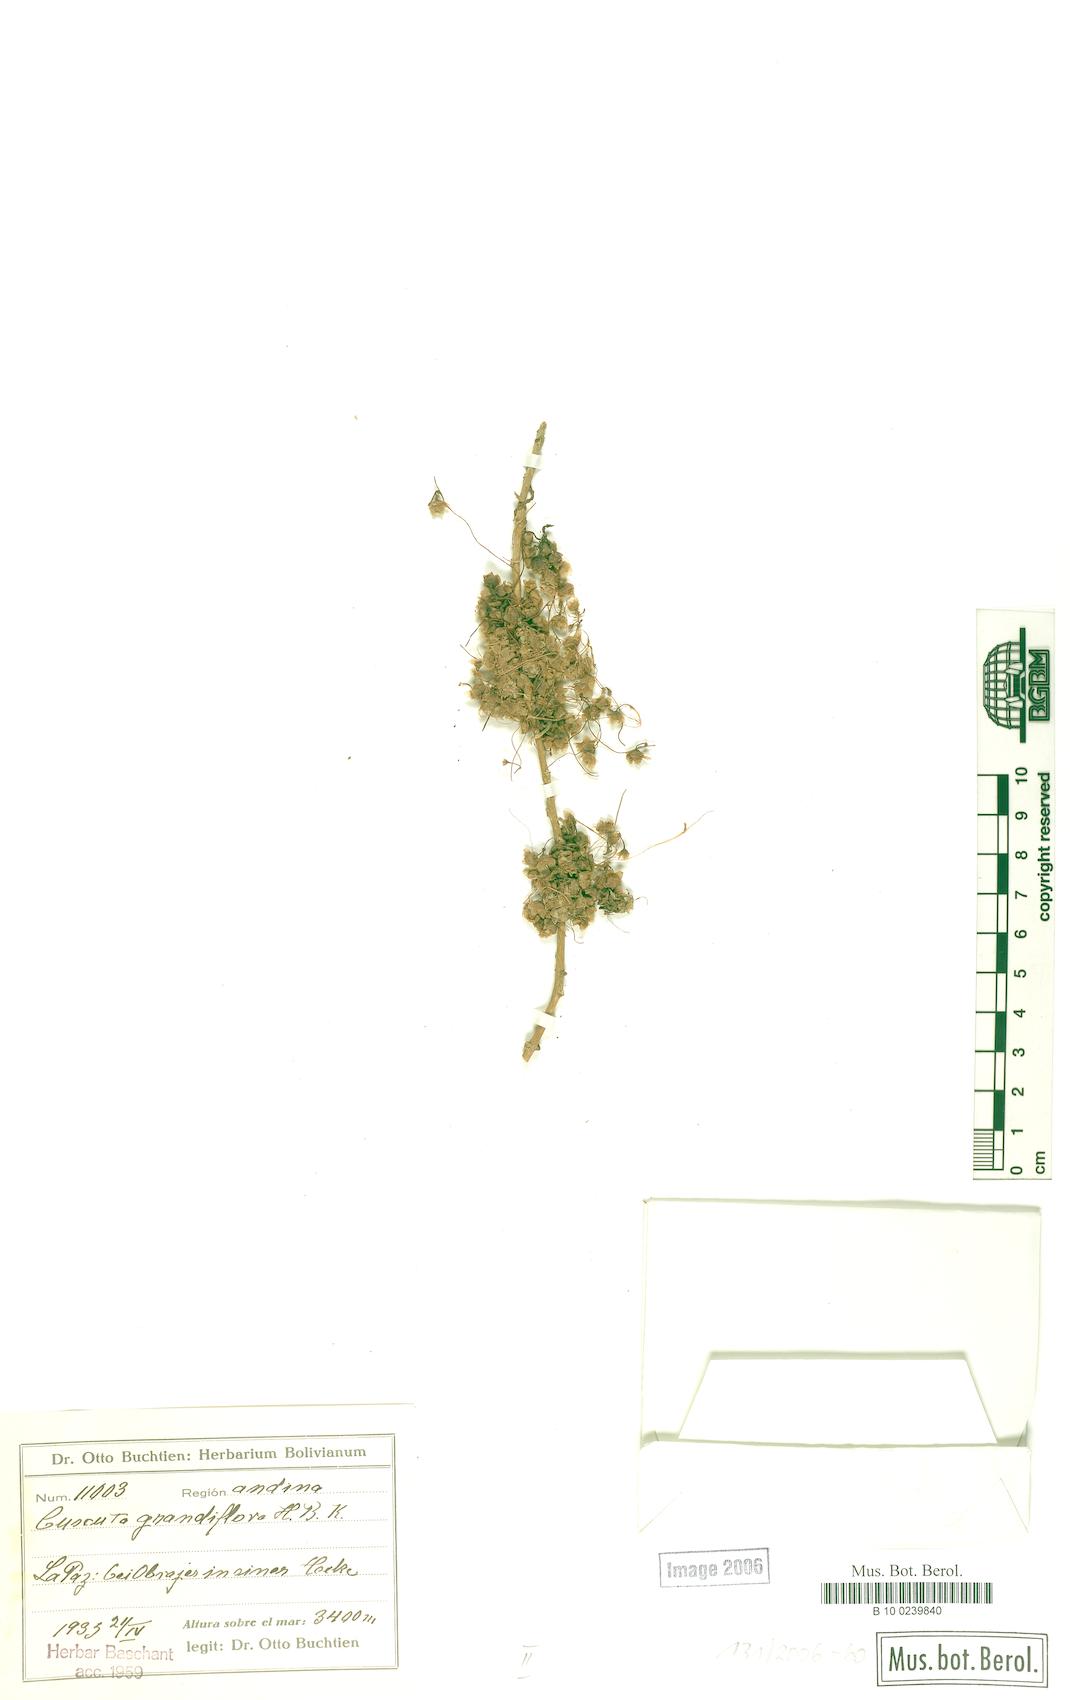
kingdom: Plantae
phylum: Tracheophyta
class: Magnoliopsida
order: Solanales
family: Convolvulaceae
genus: Cuscuta
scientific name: Cuscuta grandiflora
